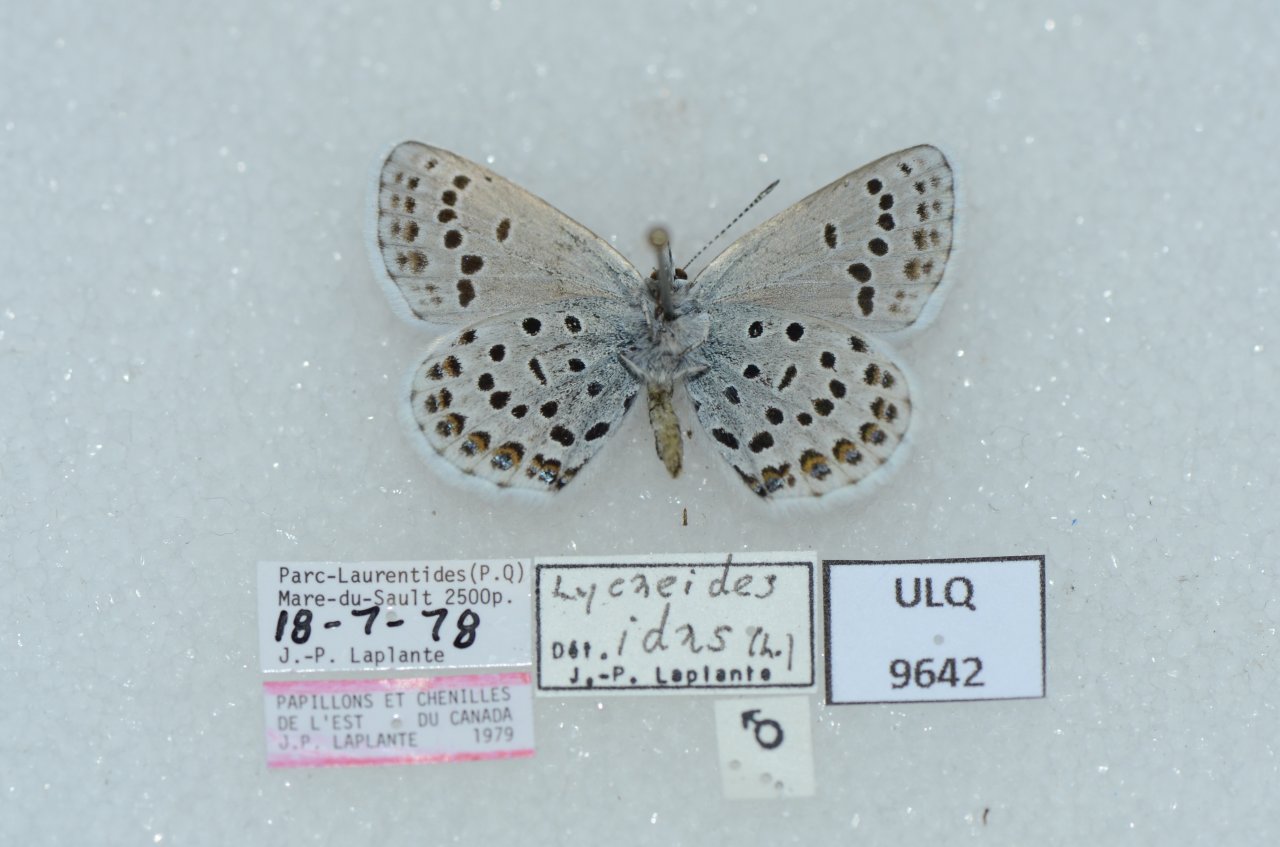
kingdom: Animalia
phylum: Arthropoda
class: Insecta
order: Lepidoptera
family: Lycaenidae
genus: Lycaeides
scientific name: Lycaeides idas
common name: Northern Blue
